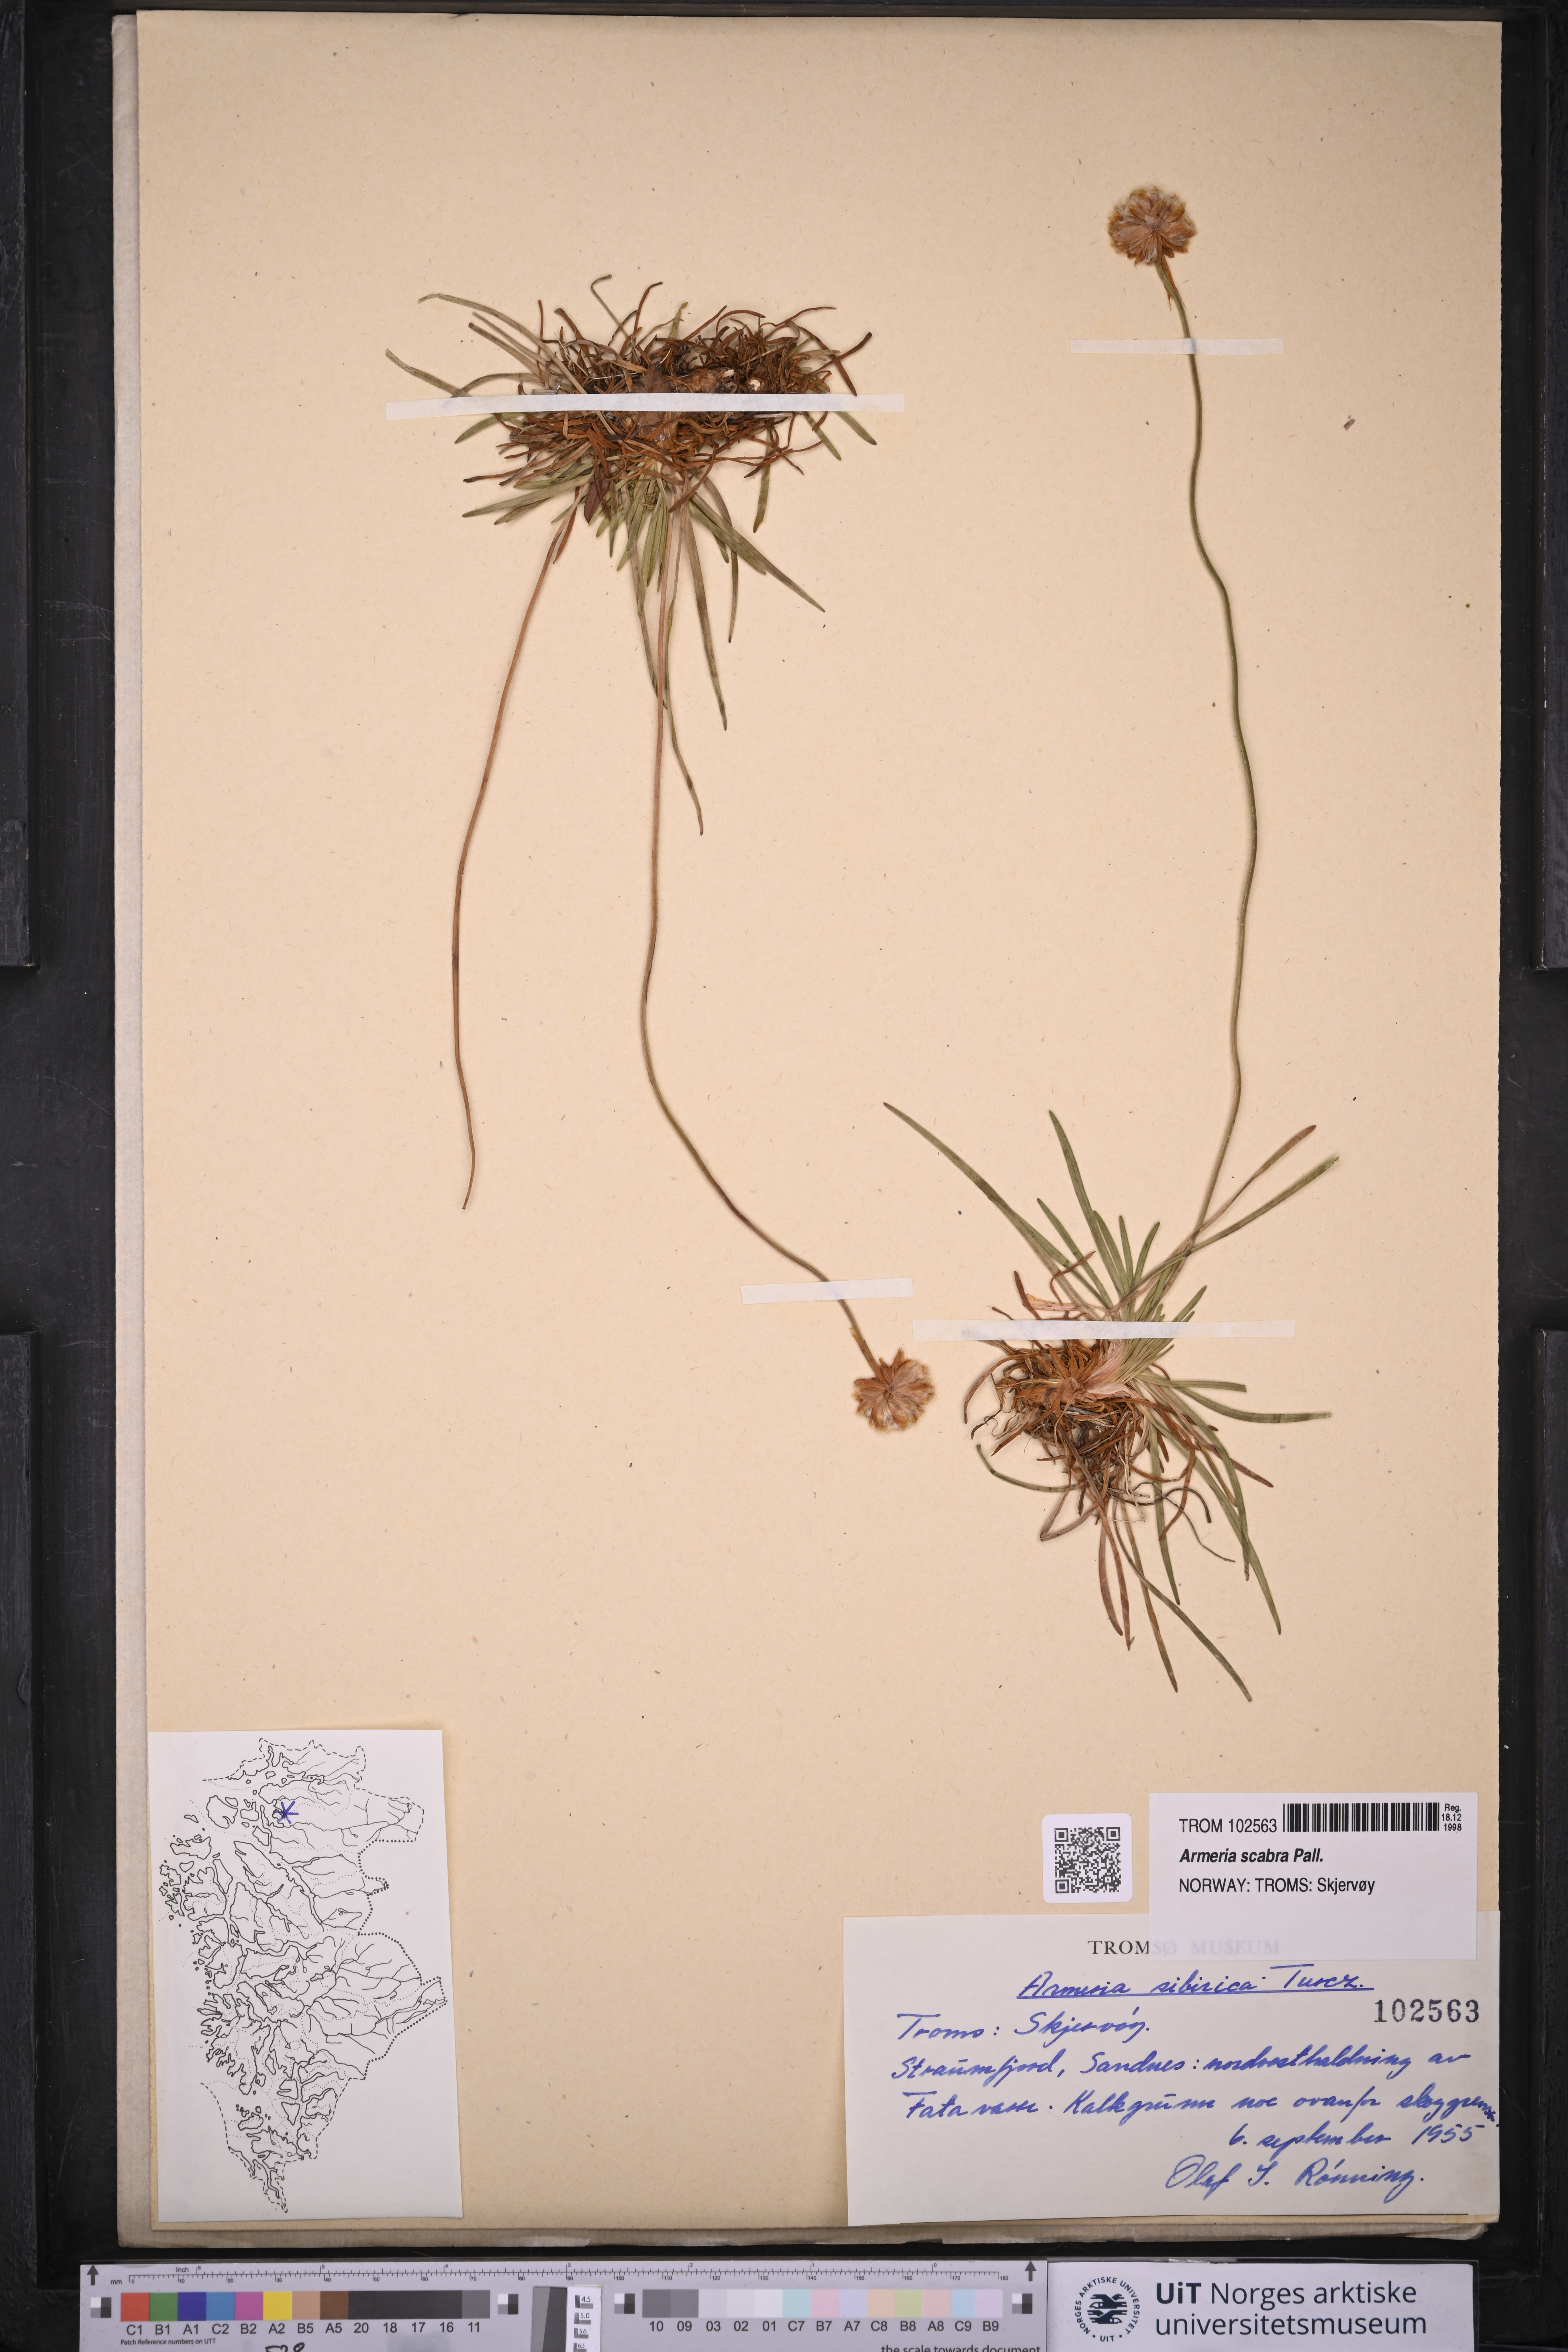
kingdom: Plantae
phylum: Tracheophyta
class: Magnoliopsida
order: Caryophyllales
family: Plumbaginaceae
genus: Armeria
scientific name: Armeria maritima
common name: Thrift
